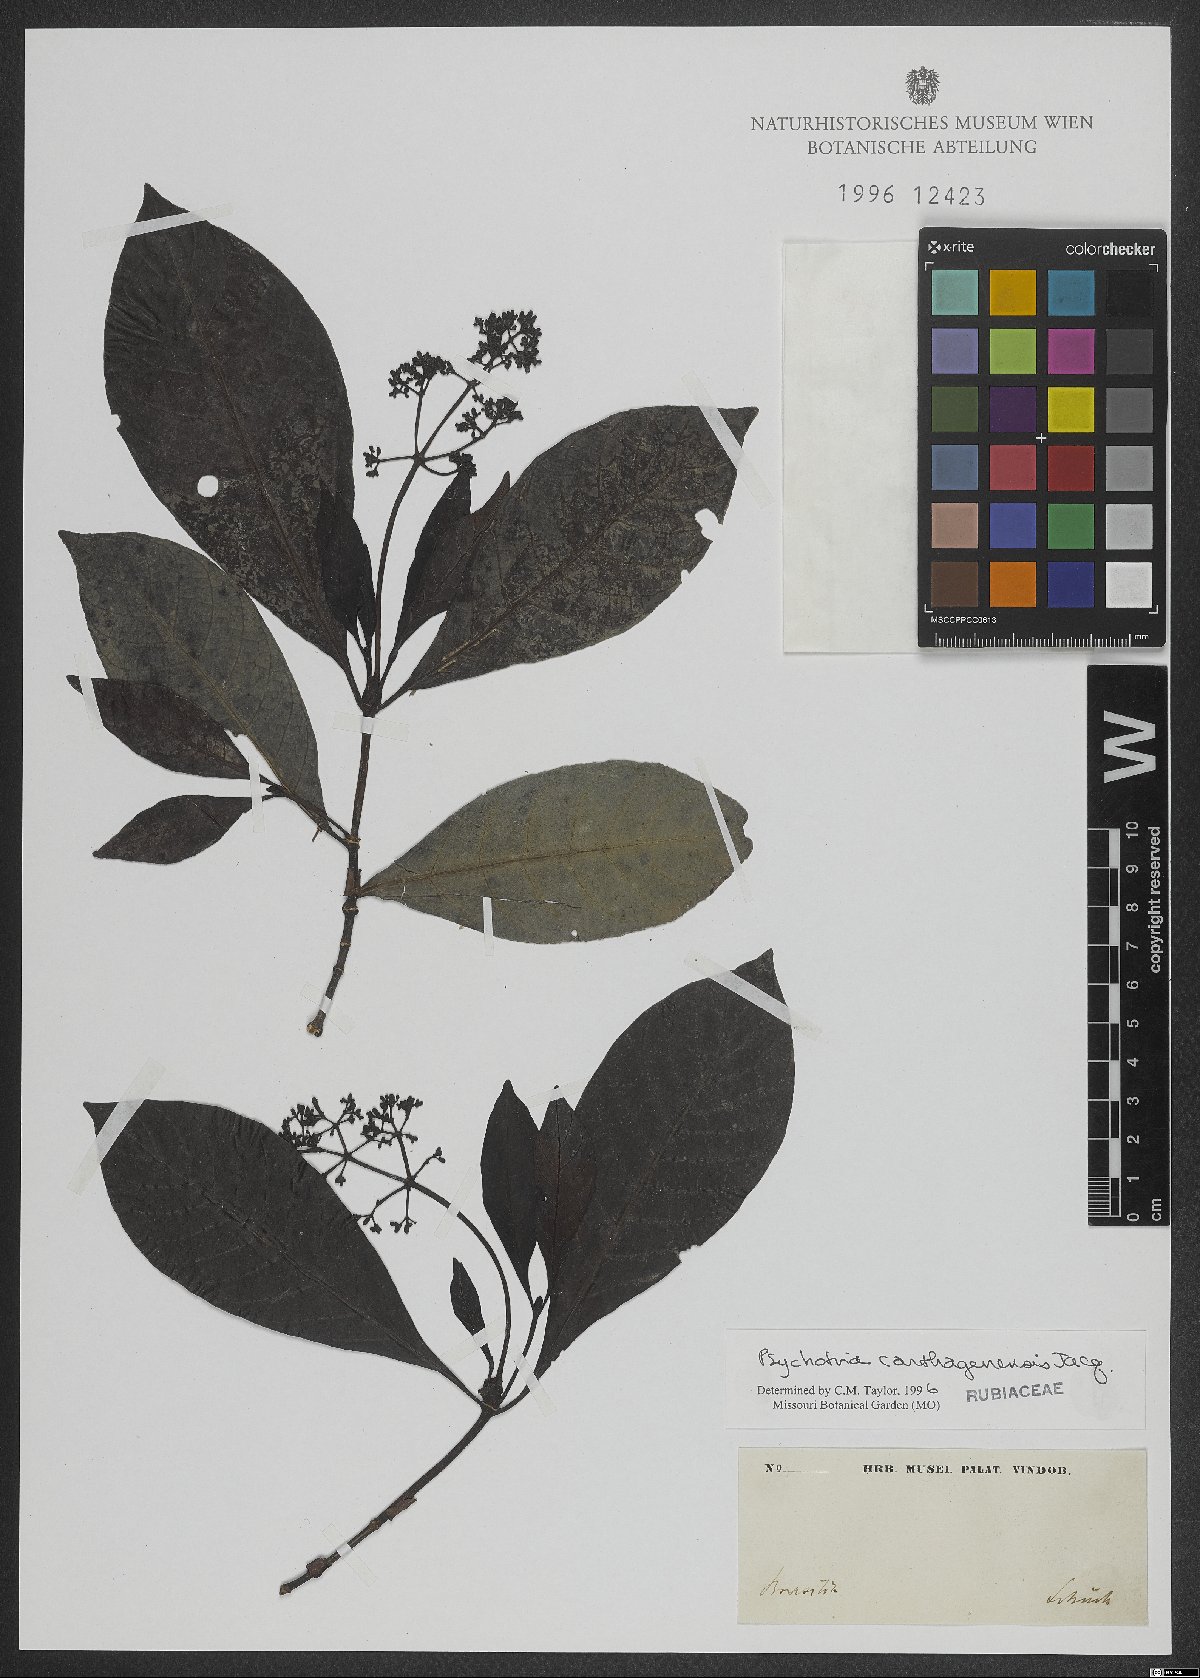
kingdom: Plantae
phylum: Tracheophyta
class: Magnoliopsida
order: Gentianales
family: Rubiaceae
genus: Psychotria
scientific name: Psychotria carthagenensis
